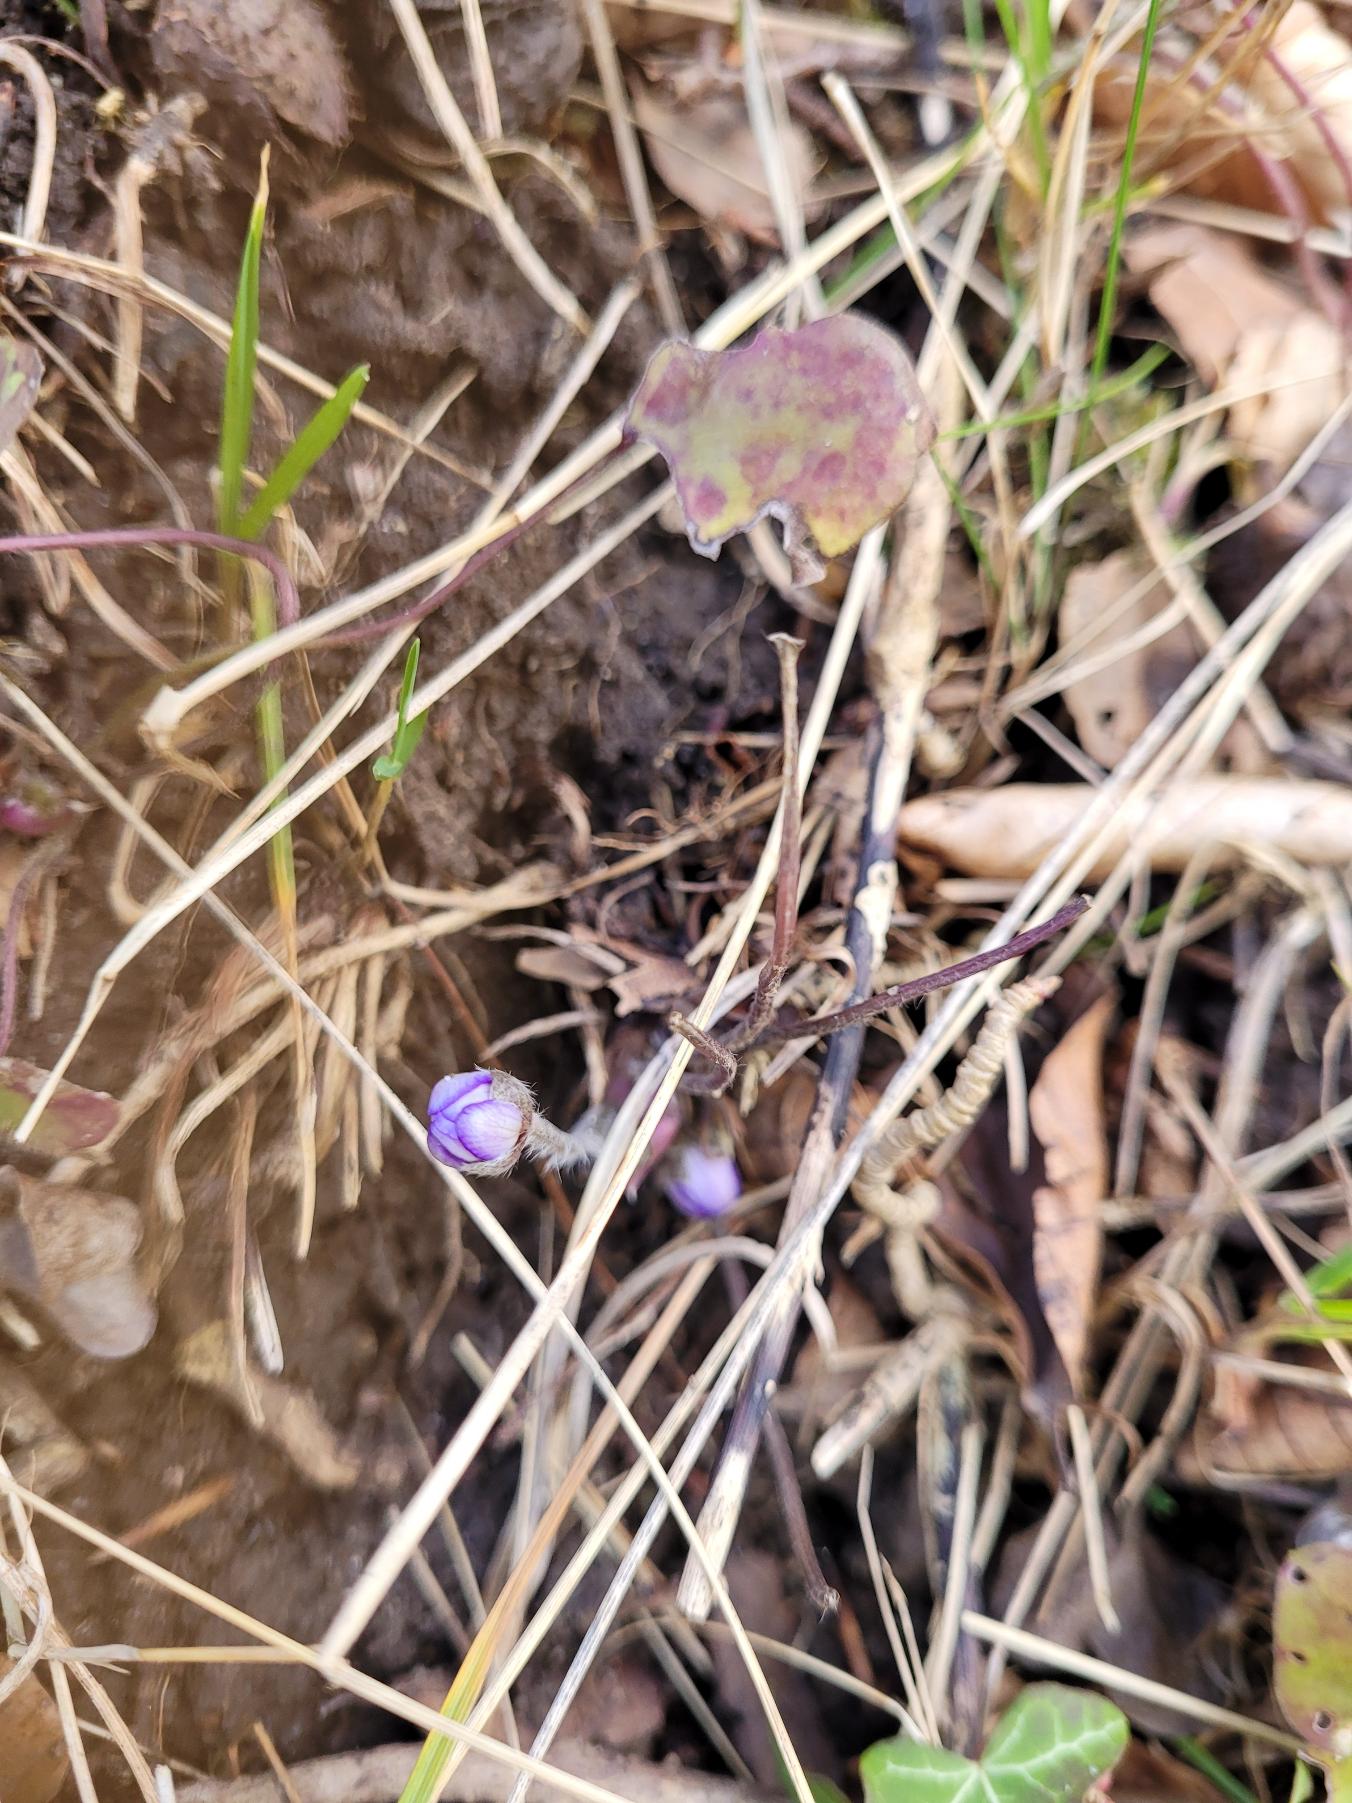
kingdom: Plantae
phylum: Tracheophyta
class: Magnoliopsida
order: Ranunculales
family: Ranunculaceae
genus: Hepatica
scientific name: Hepatica nobilis
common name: Blå anemone
